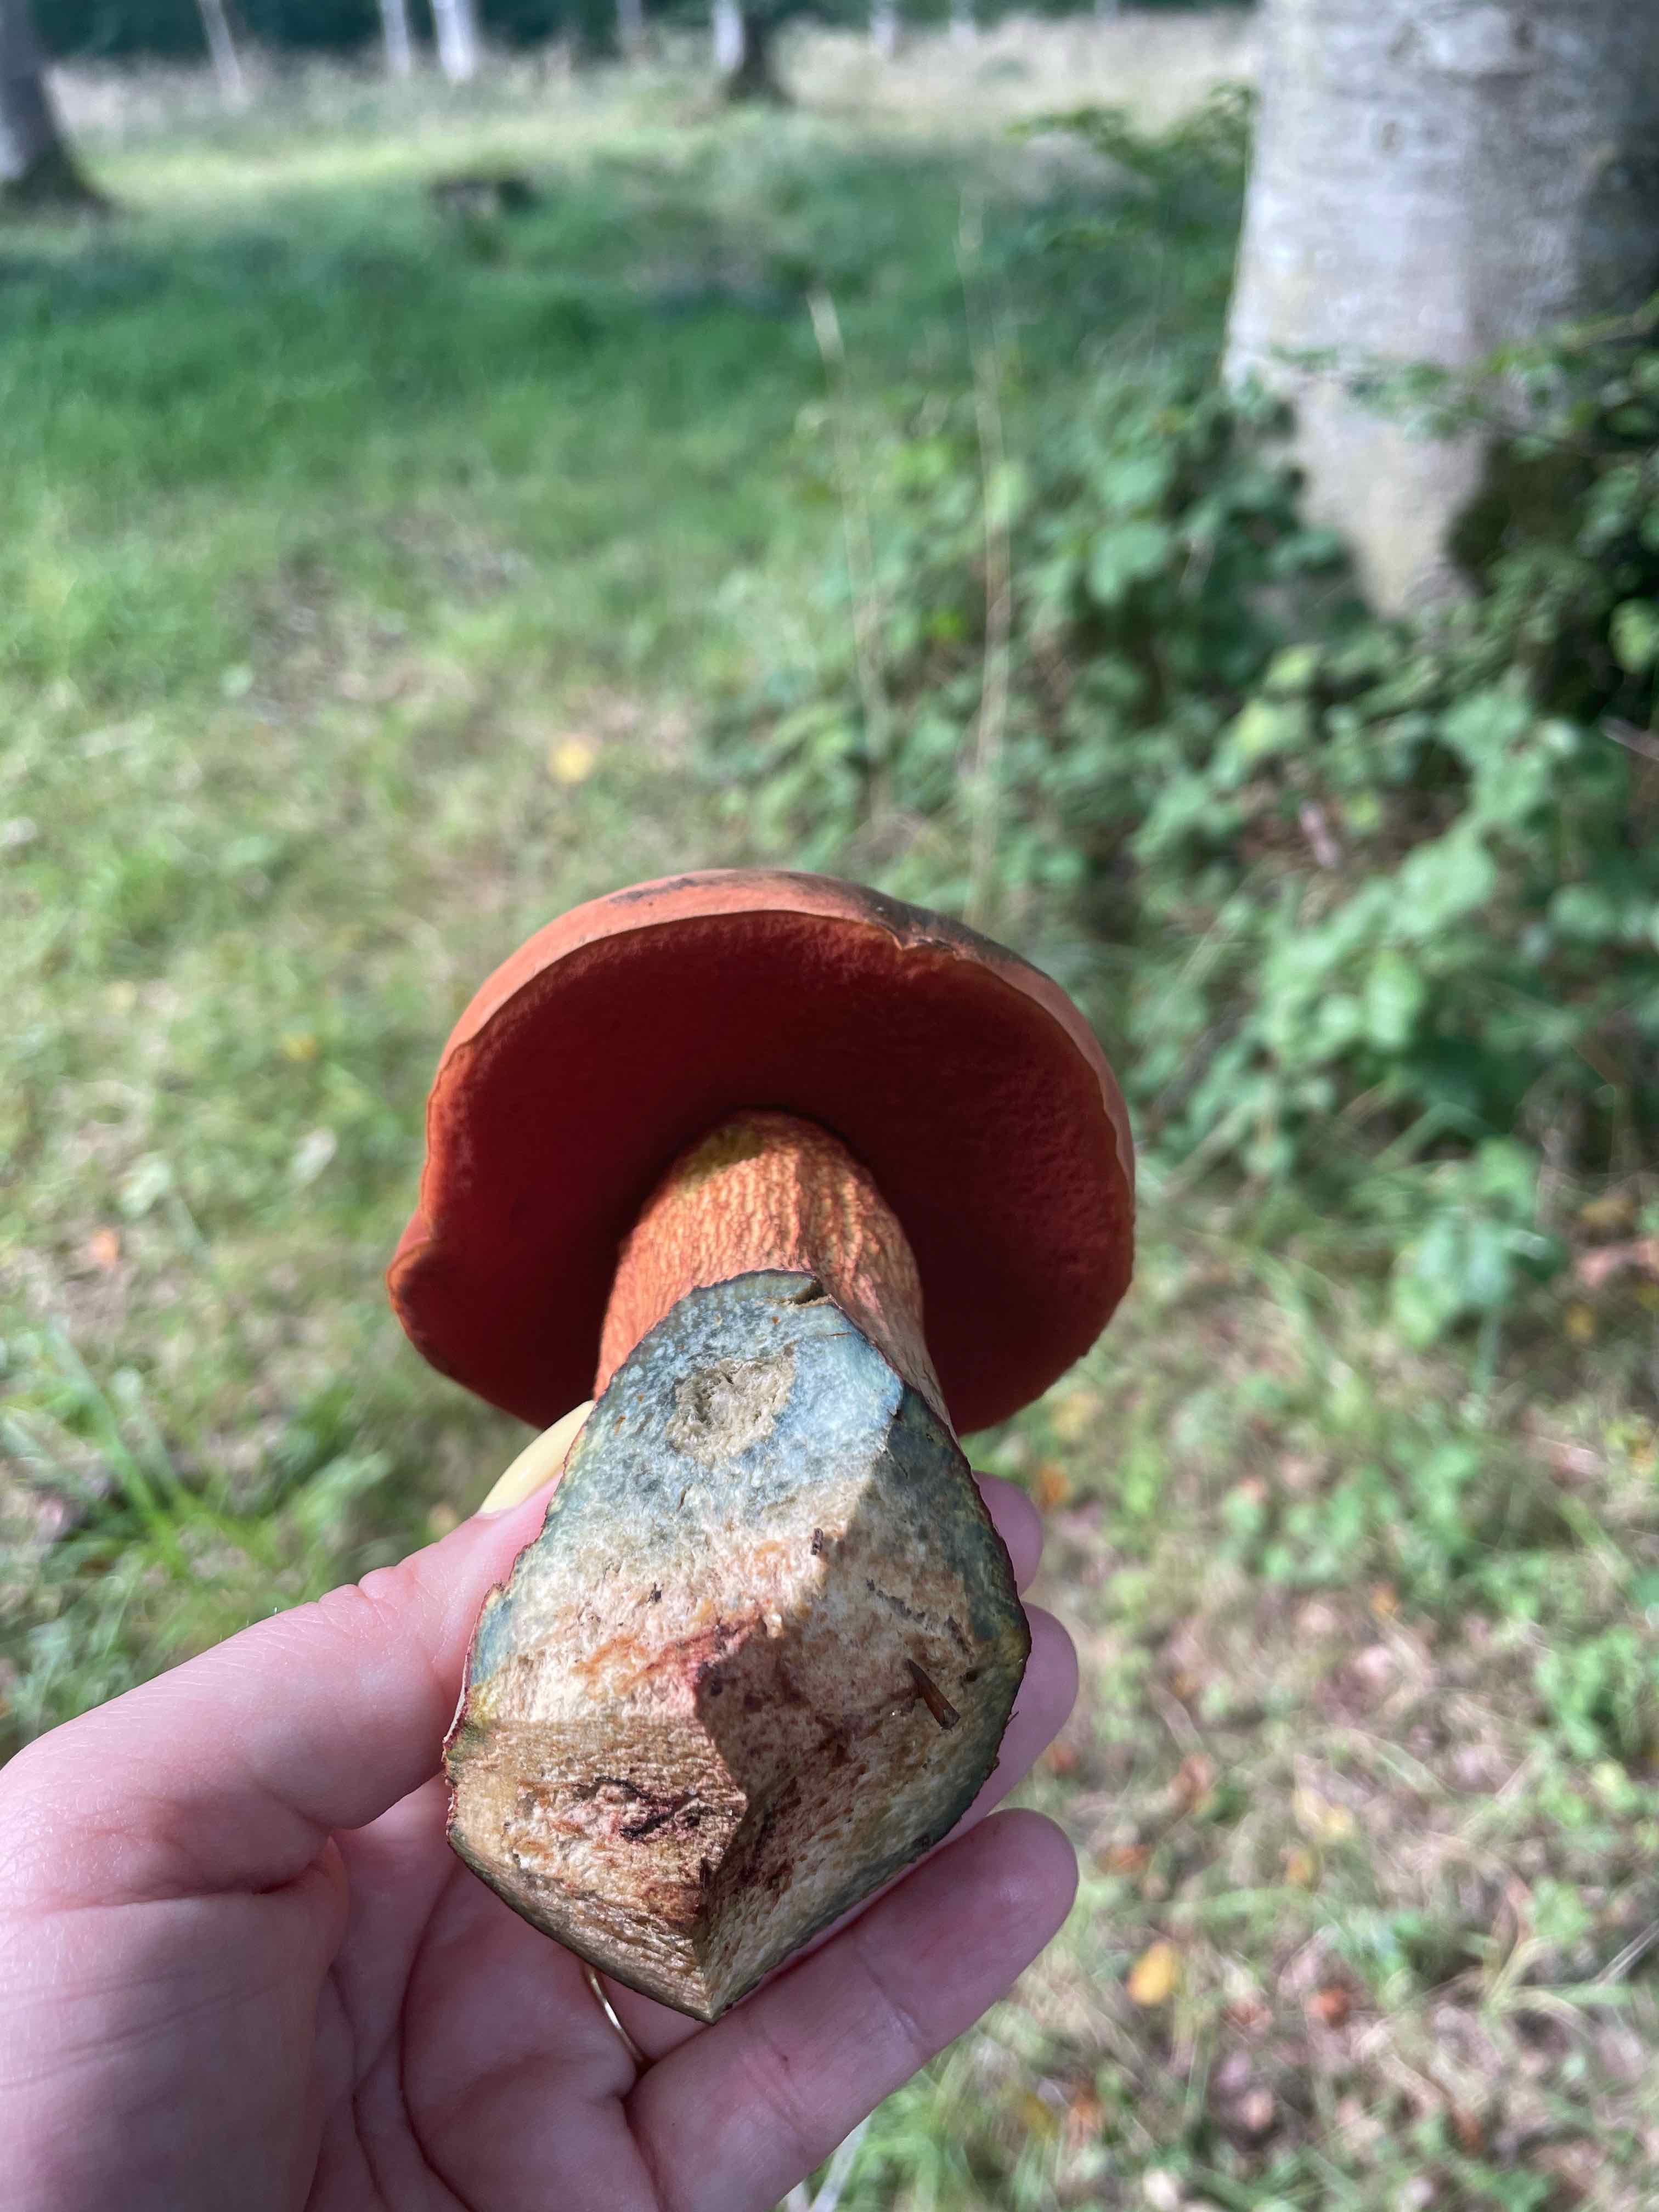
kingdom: Fungi
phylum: Basidiomycota
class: Agaricomycetes
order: Boletales
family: Boletaceae
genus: Suillellus
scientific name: Suillellus luridus
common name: netstokket indigorørhat
